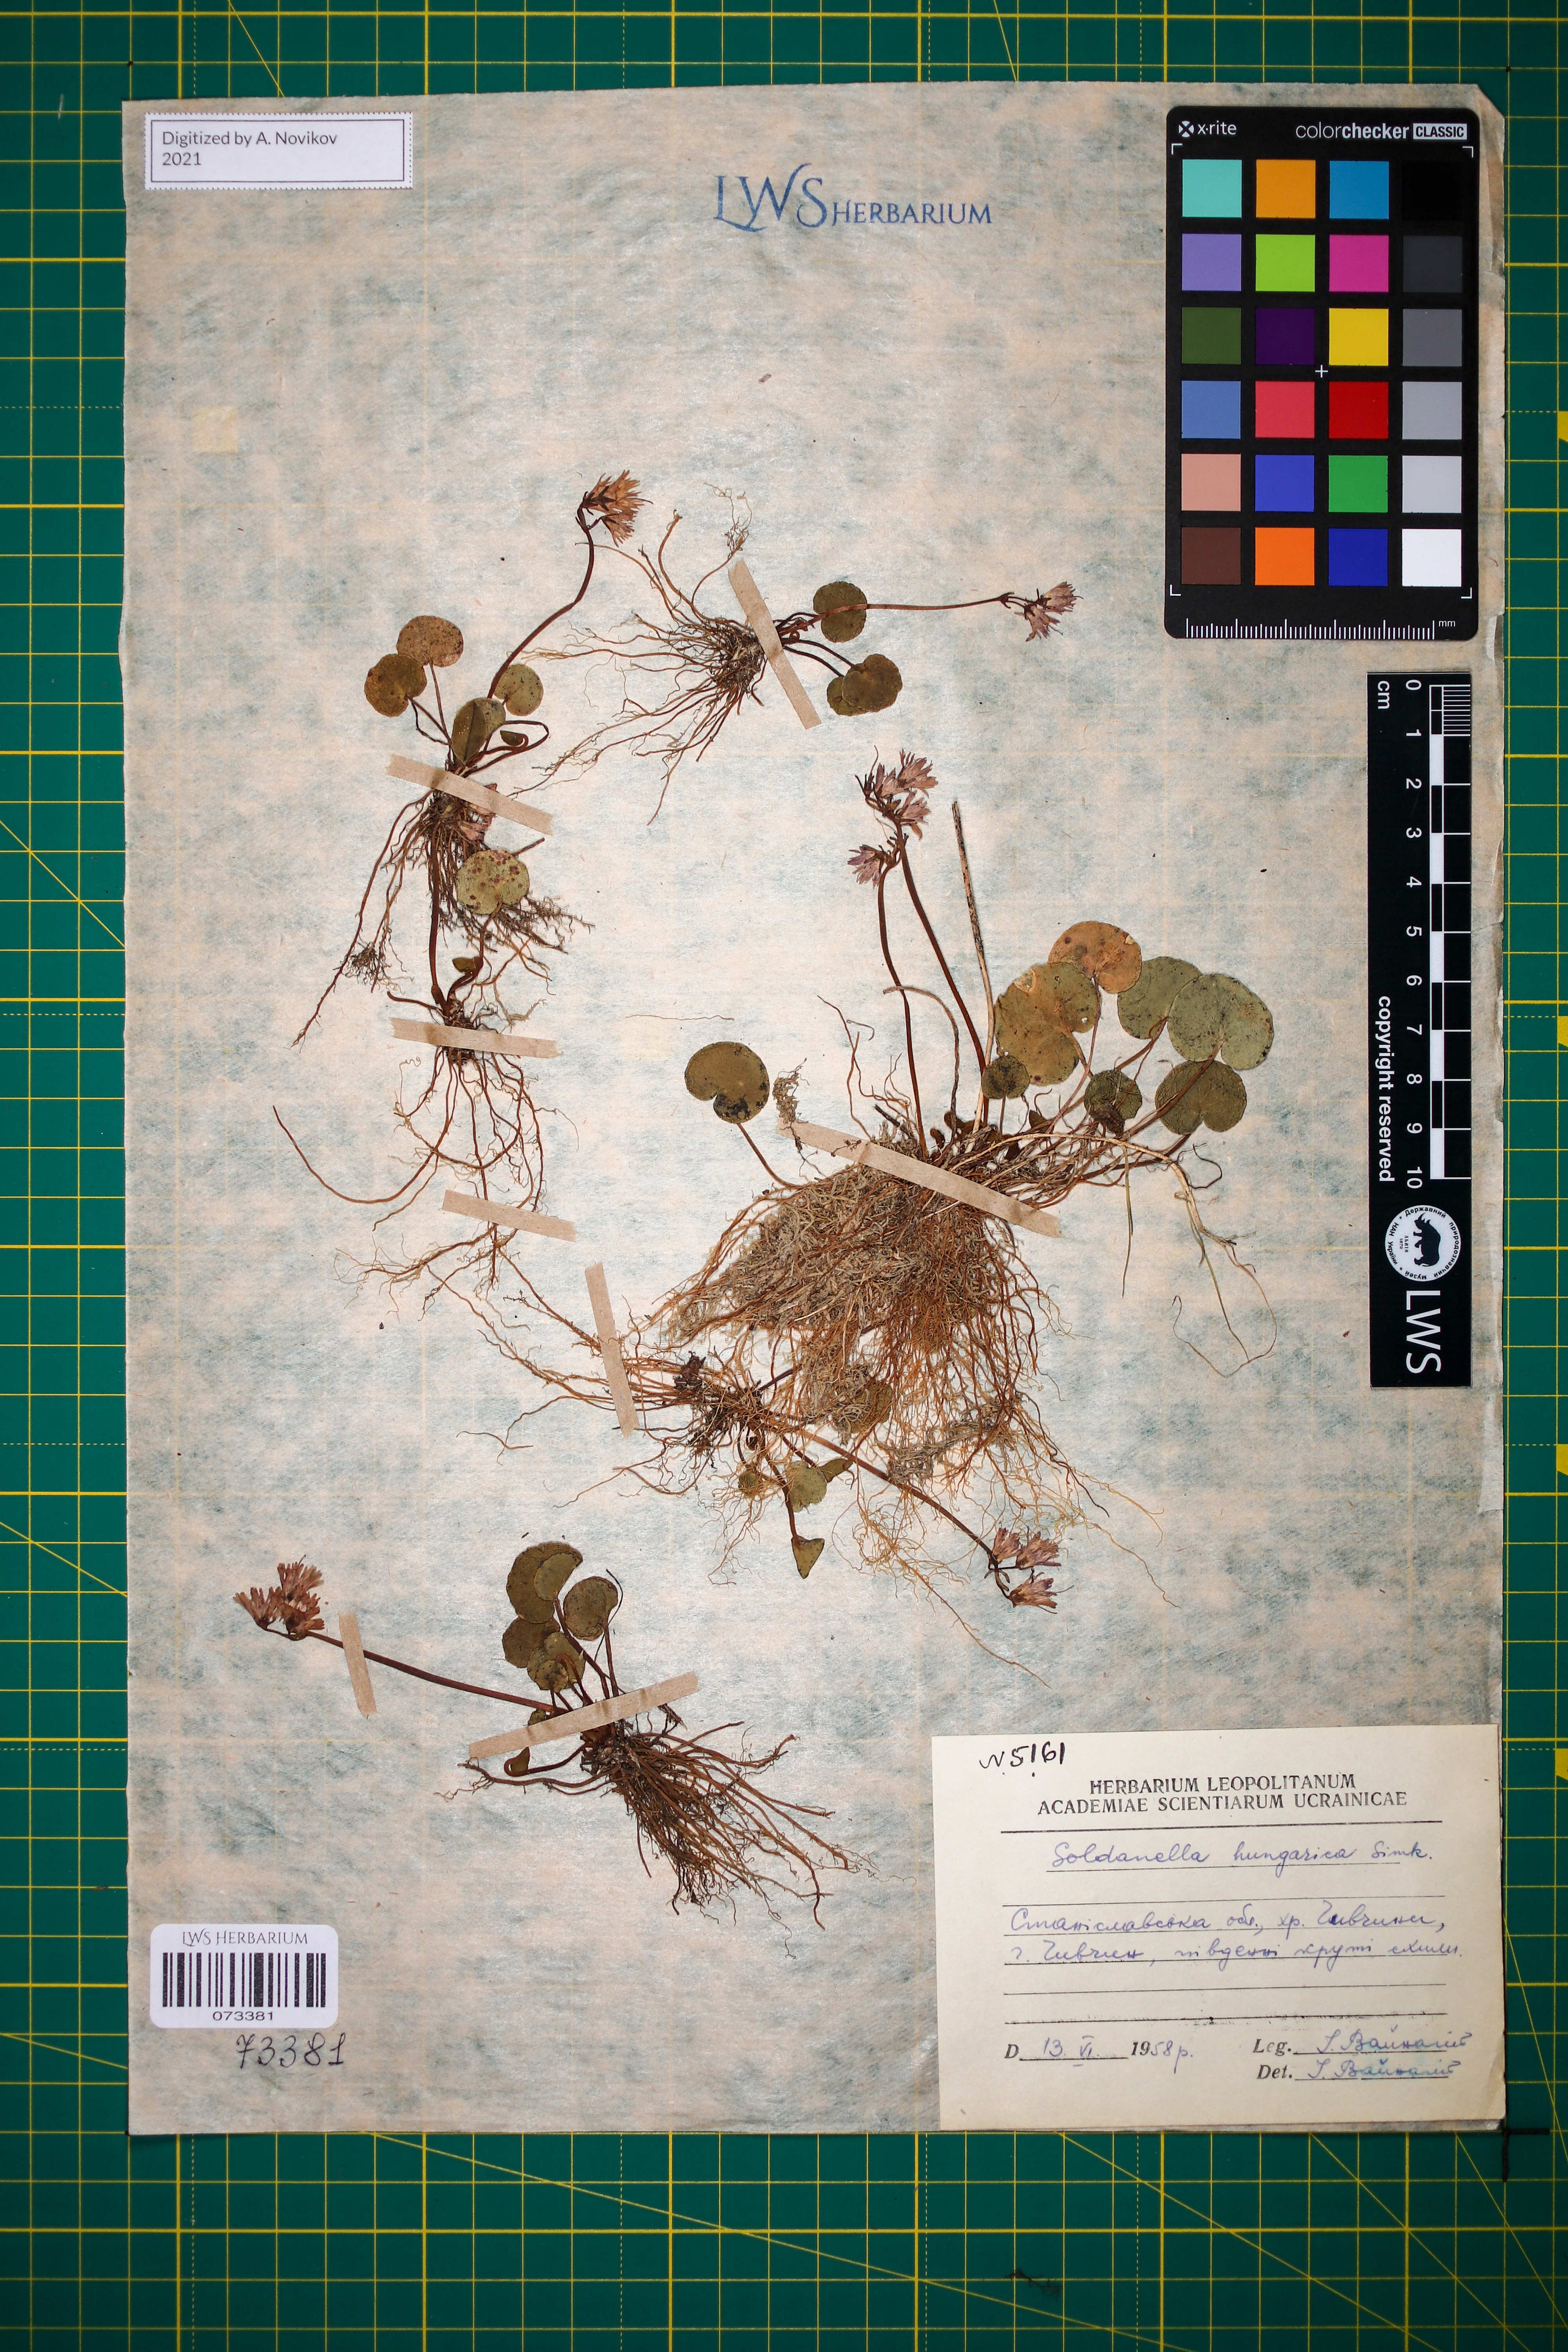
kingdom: Plantae
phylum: Tracheophyta
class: Magnoliopsida
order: Ericales
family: Primulaceae
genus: Soldanella
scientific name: Soldanella hungarica
